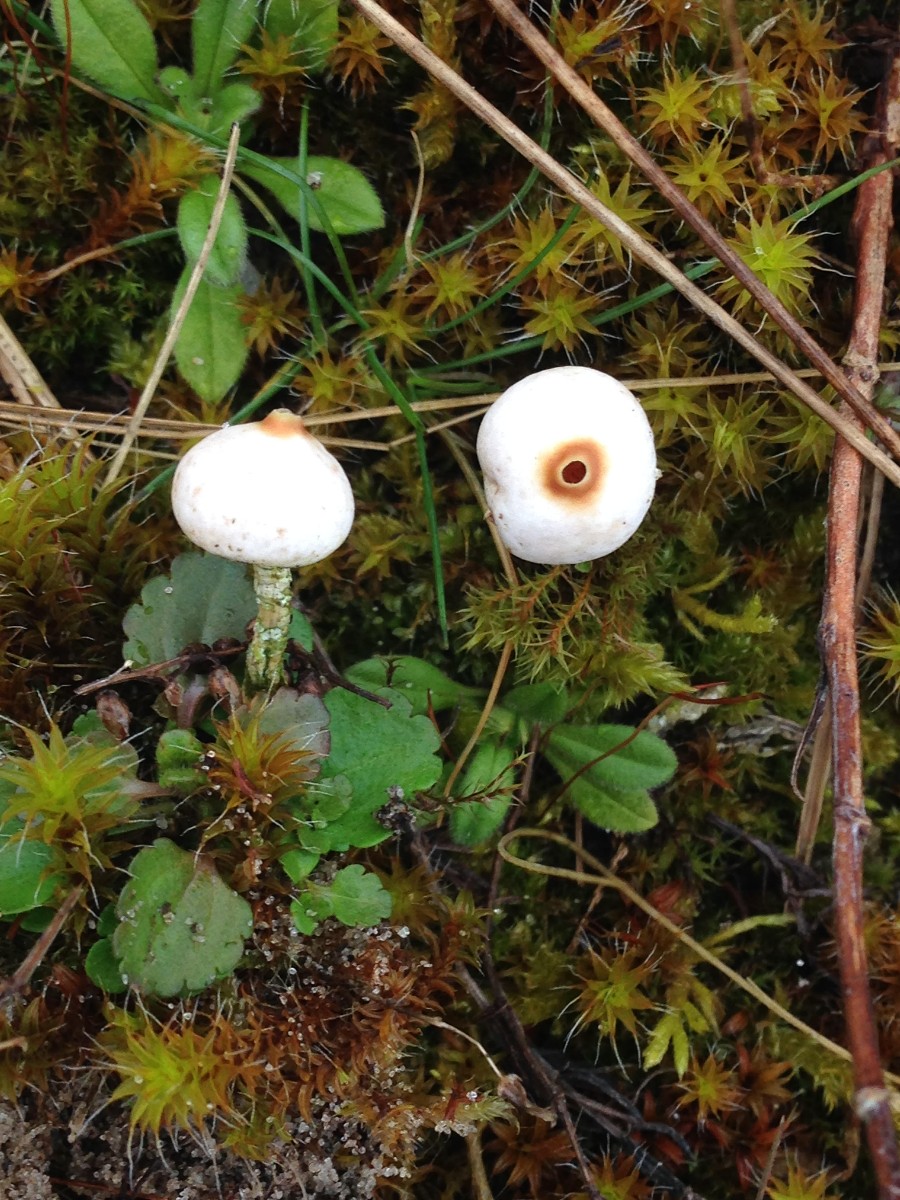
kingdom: Fungi
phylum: Basidiomycota
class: Agaricomycetes
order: Agaricales
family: Agaricaceae
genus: Tulostoma
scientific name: Tulostoma brumale
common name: vinter-stilkbovist
